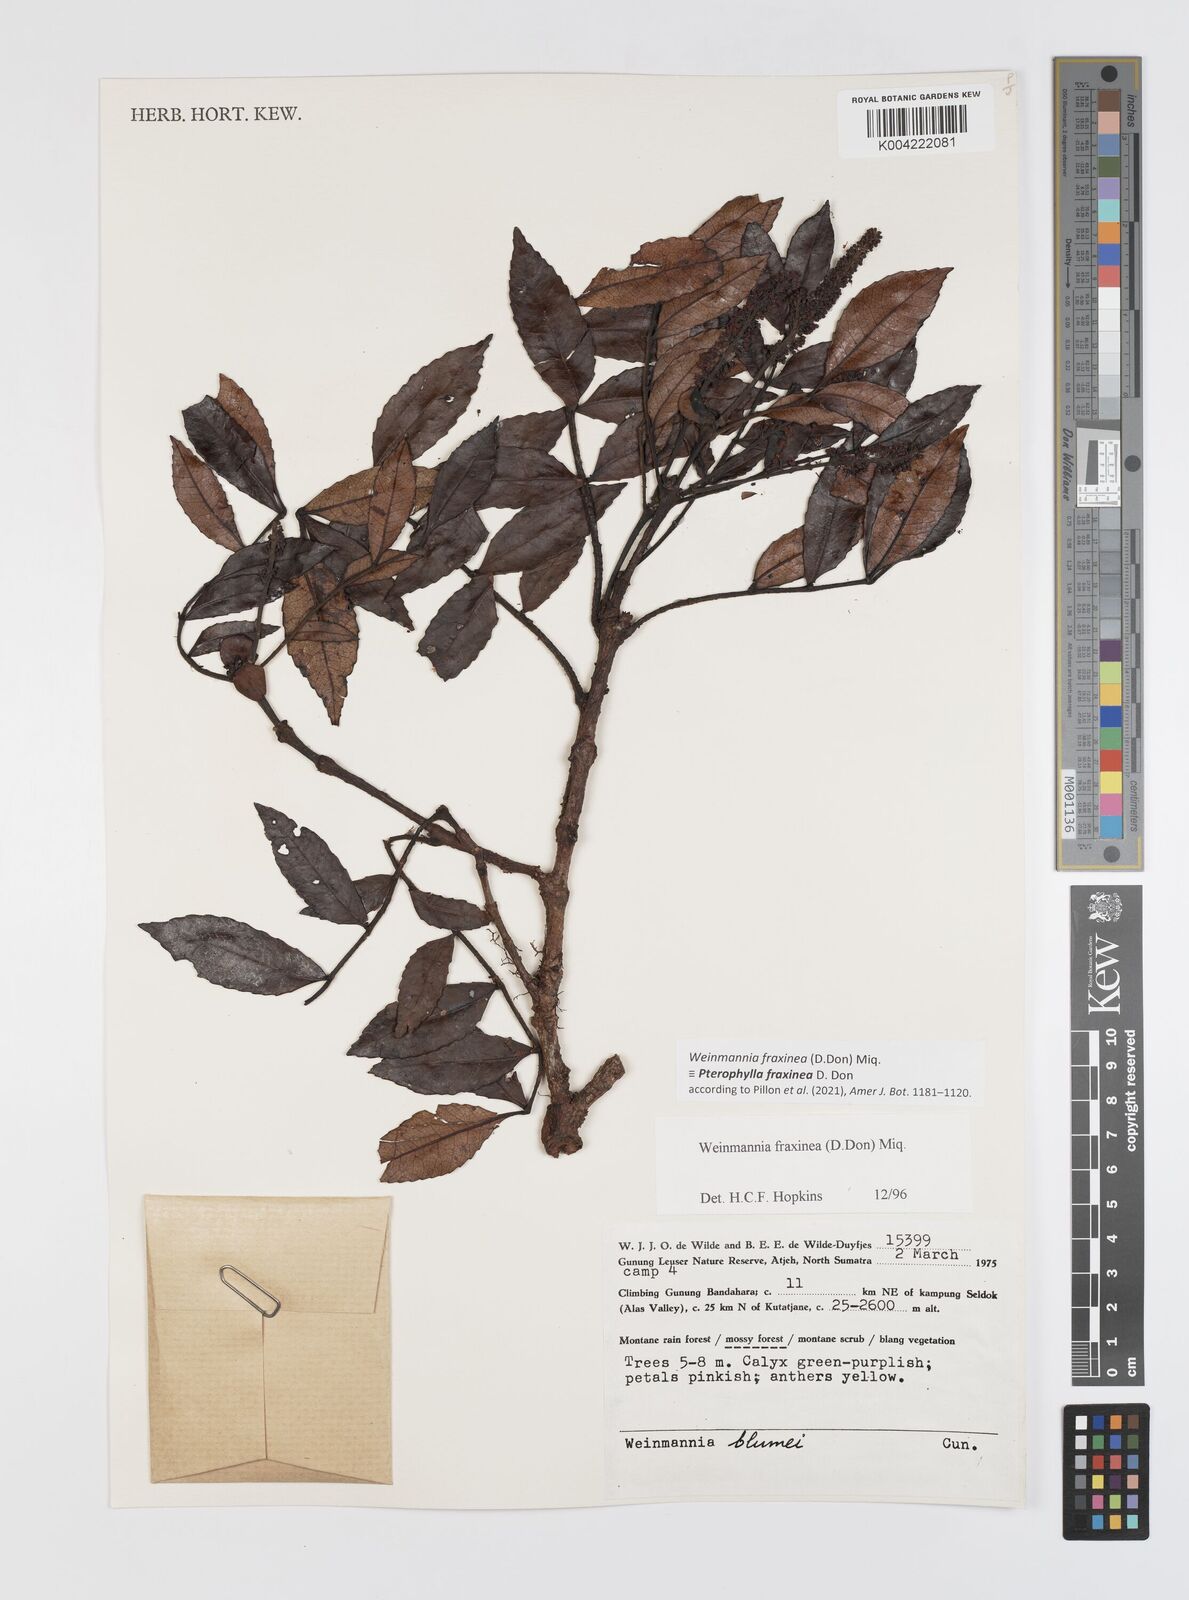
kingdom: Plantae
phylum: Tracheophyta
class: Magnoliopsida
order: Oxalidales
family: Cunoniaceae
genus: Pterophylla
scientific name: Pterophylla fraxinea
